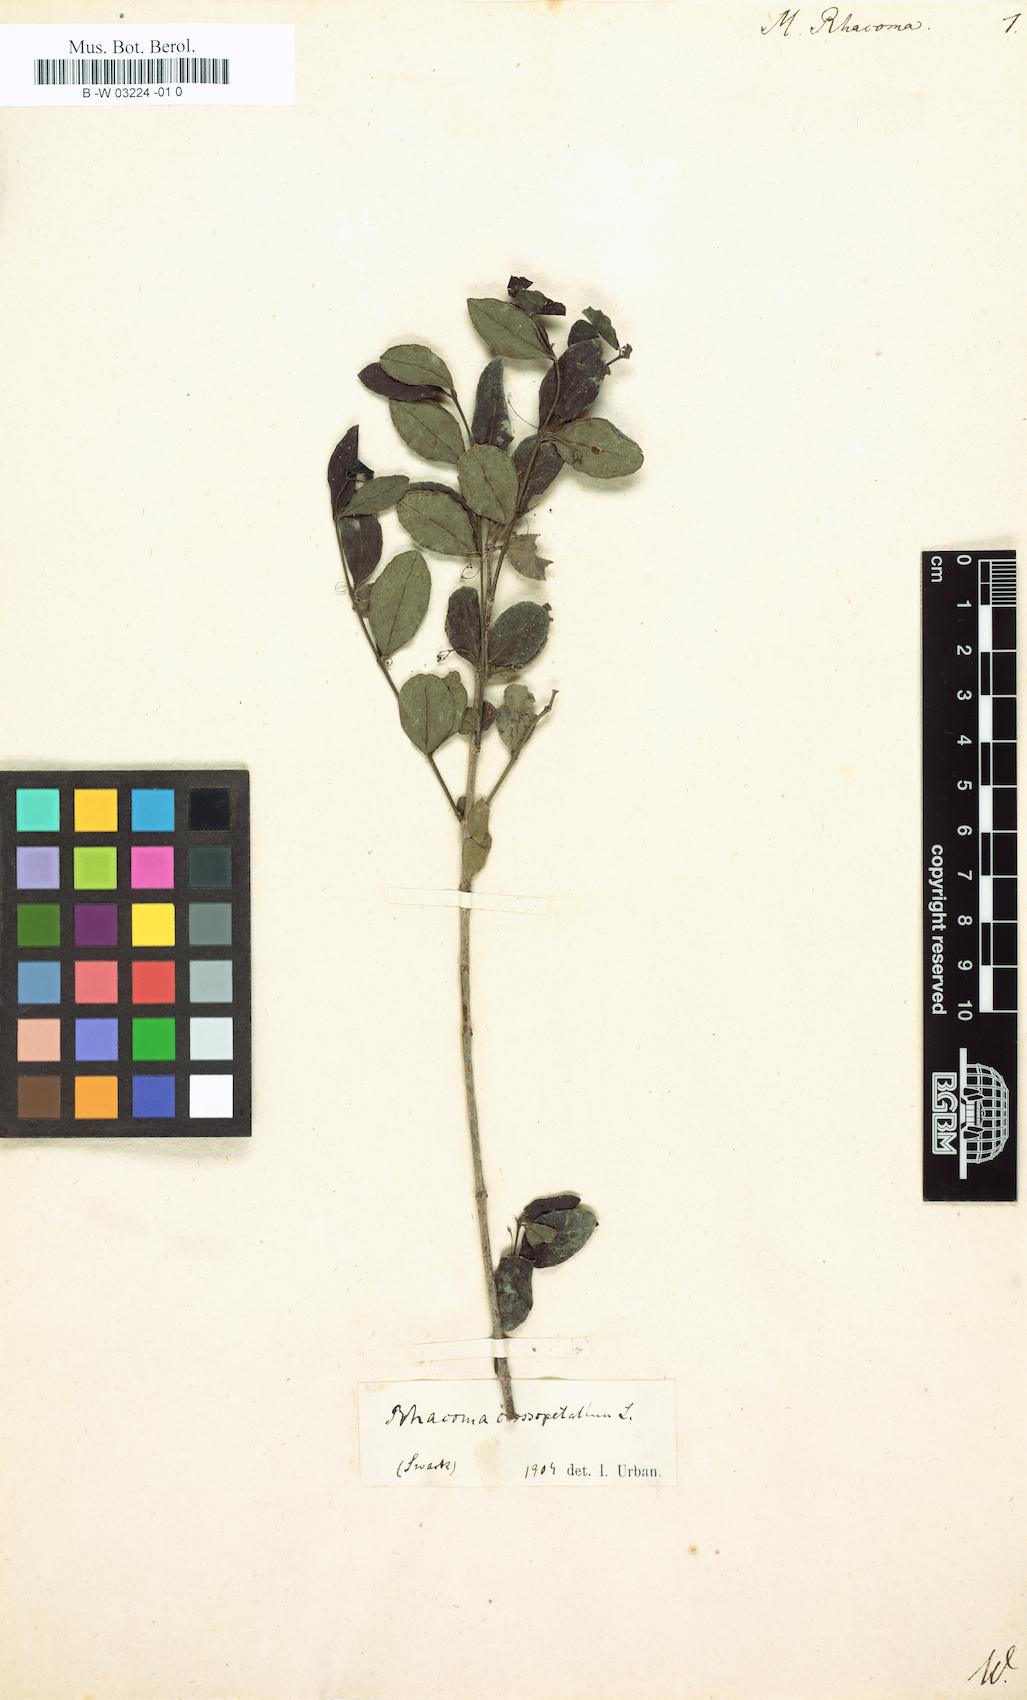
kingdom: Plantae
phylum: Tracheophyta
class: Magnoliopsida
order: Celastrales
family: Celastraceae
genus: Crossopetalum
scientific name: Crossopetalum rhacoma
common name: Maidenberry
